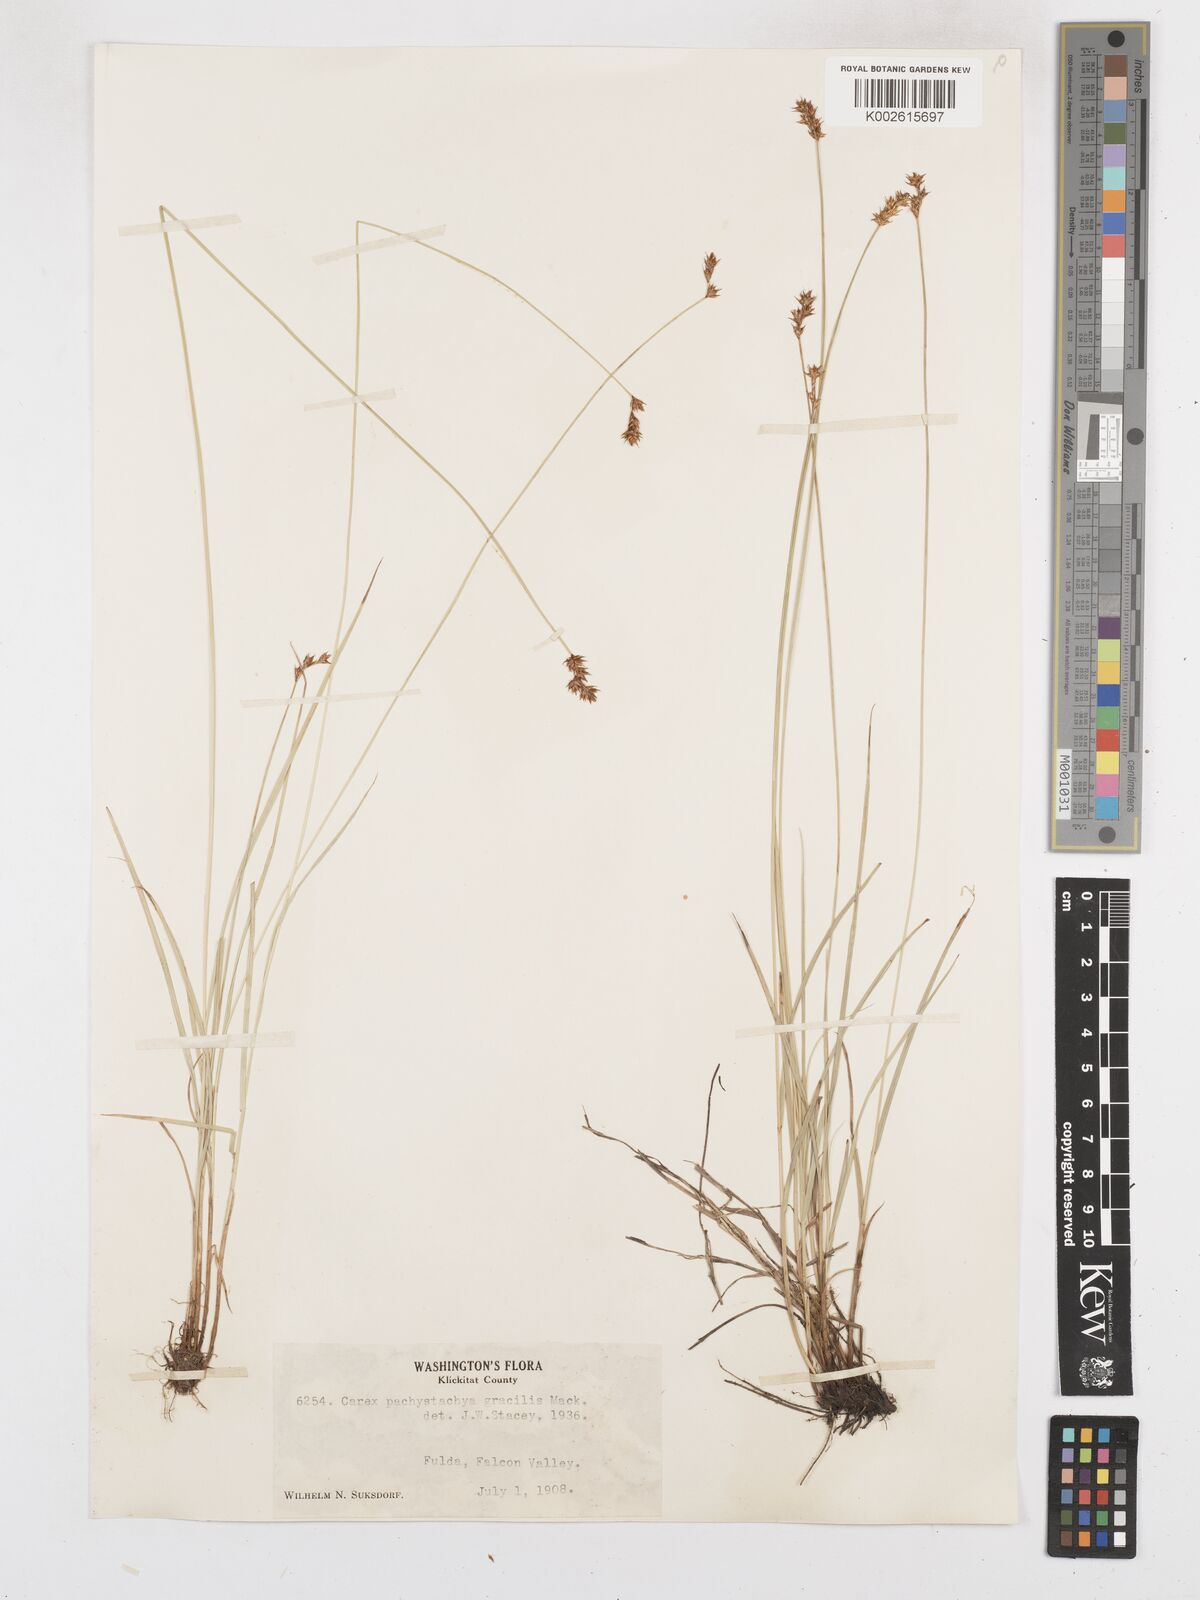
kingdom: Plantae
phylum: Tracheophyta
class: Liliopsida
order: Poales
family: Cyperaceae
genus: Carex
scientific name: Carex pachystachya
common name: Chamisso's sedge
